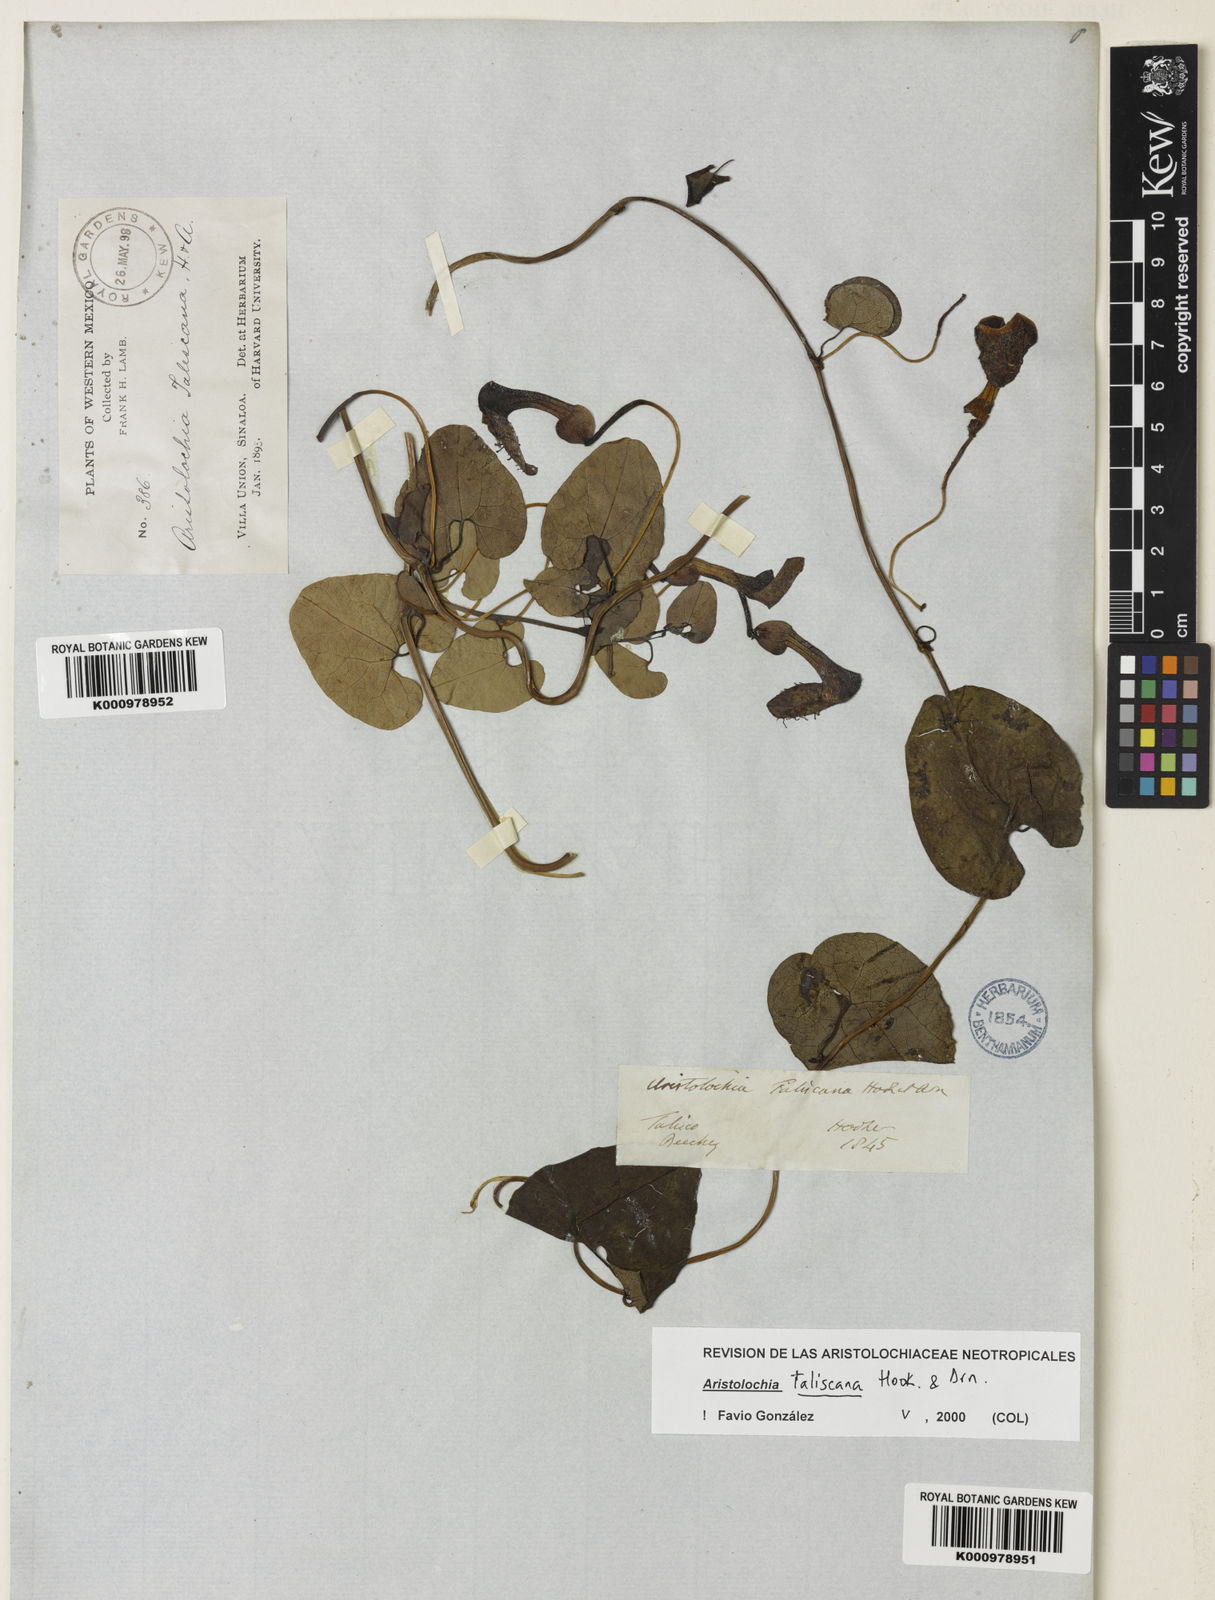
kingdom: Plantae
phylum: Tracheophyta
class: Magnoliopsida
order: Piperales
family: Aristolochiaceae
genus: Aristolochia
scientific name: Aristolochia taliscana
